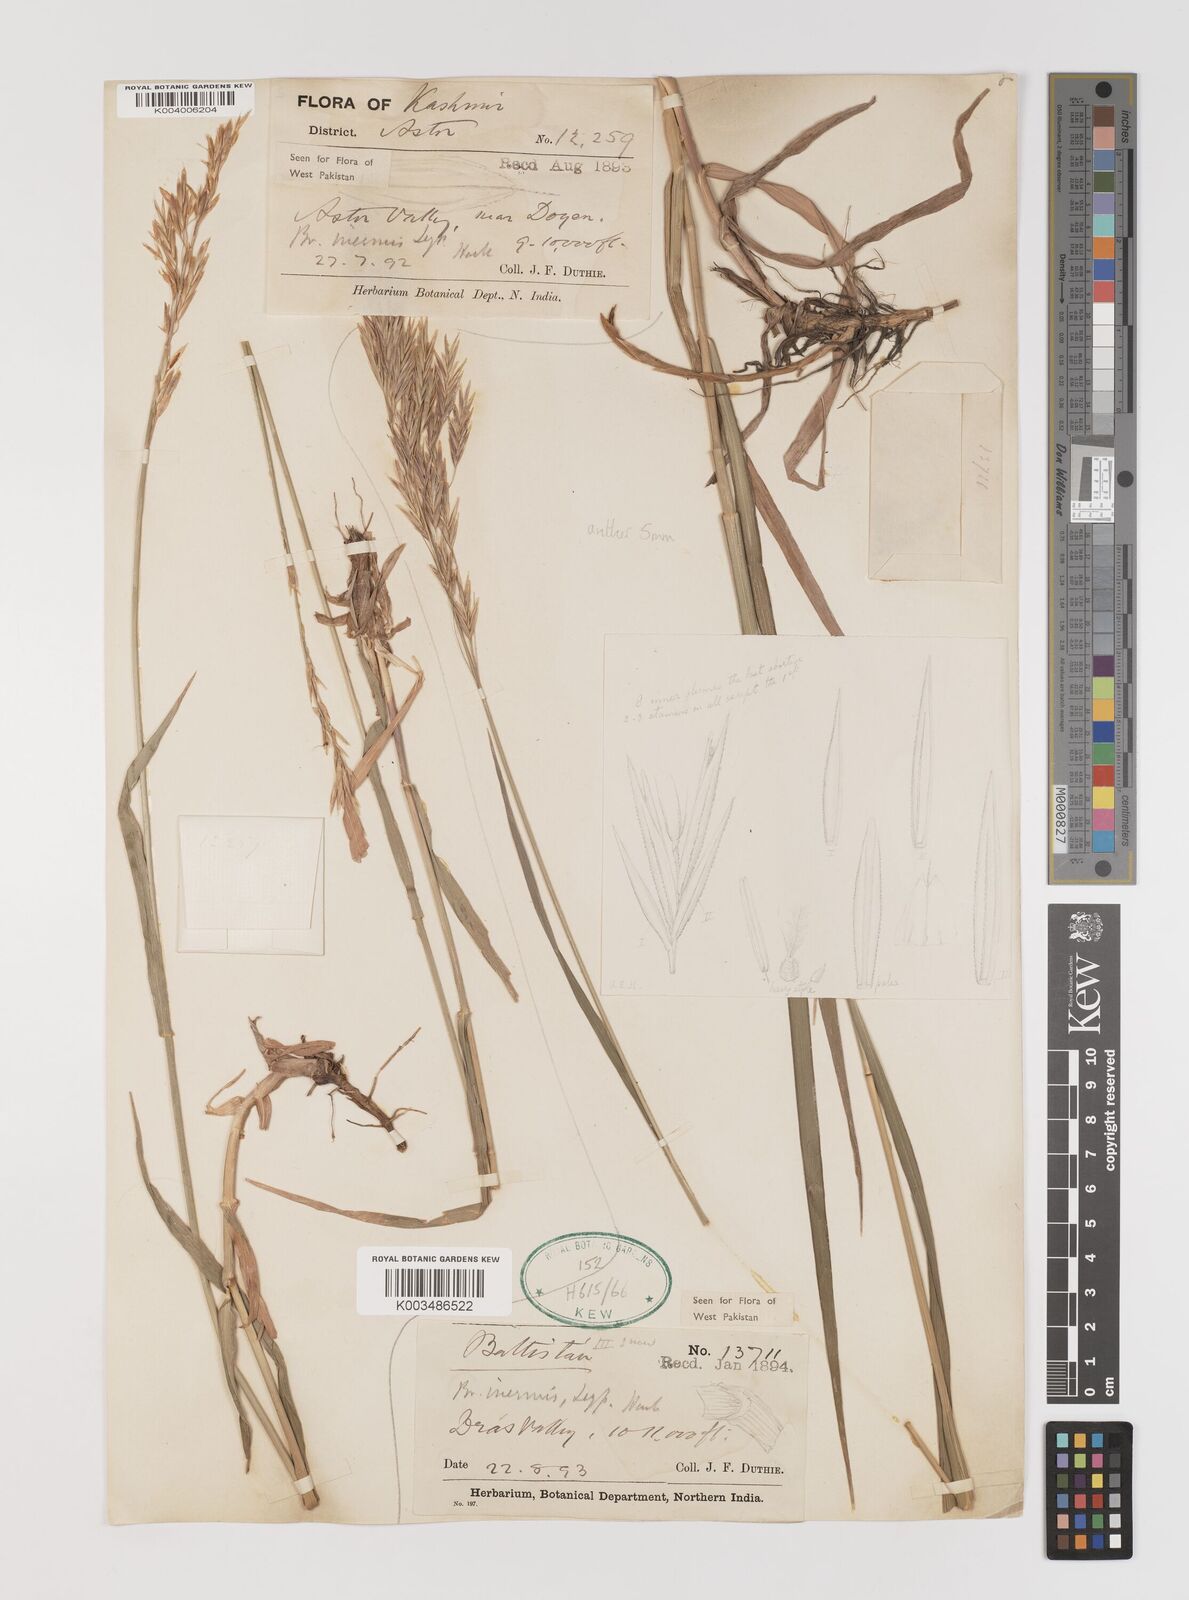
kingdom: Plantae
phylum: Tracheophyta
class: Liliopsida
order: Poales
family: Poaceae
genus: Bromus
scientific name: Bromus inermis
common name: Smooth brome
